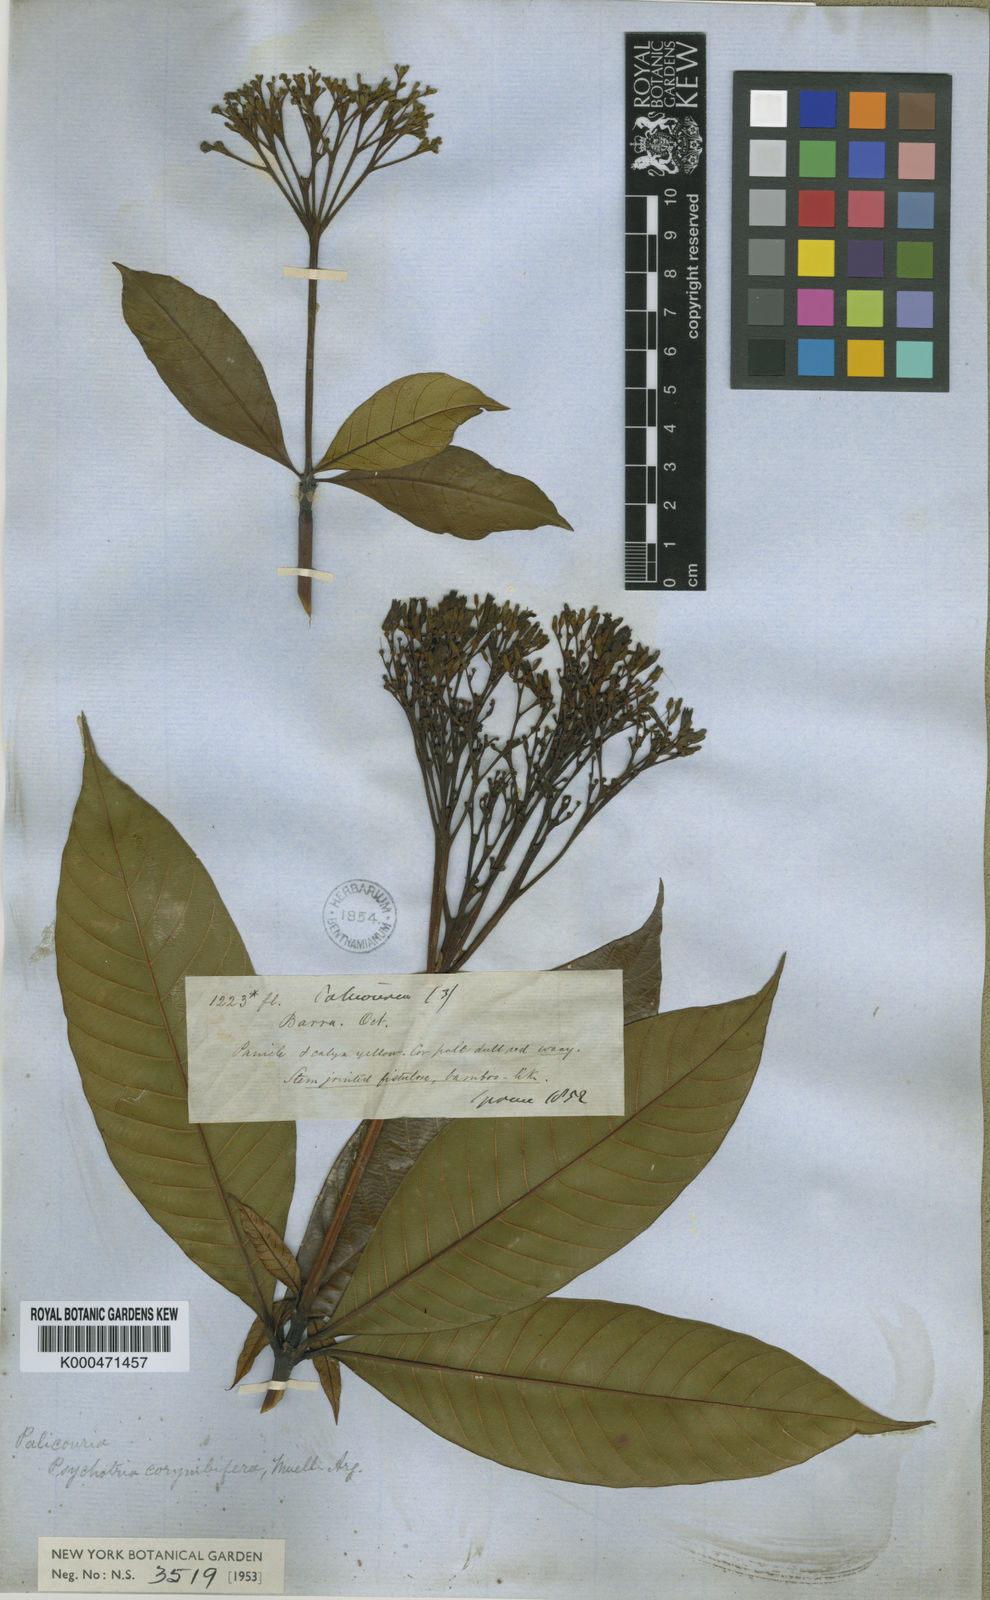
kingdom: Plantae
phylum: Tracheophyta
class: Magnoliopsida
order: Gentianales
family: Rubiaceae
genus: Palicourea
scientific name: Palicourea
